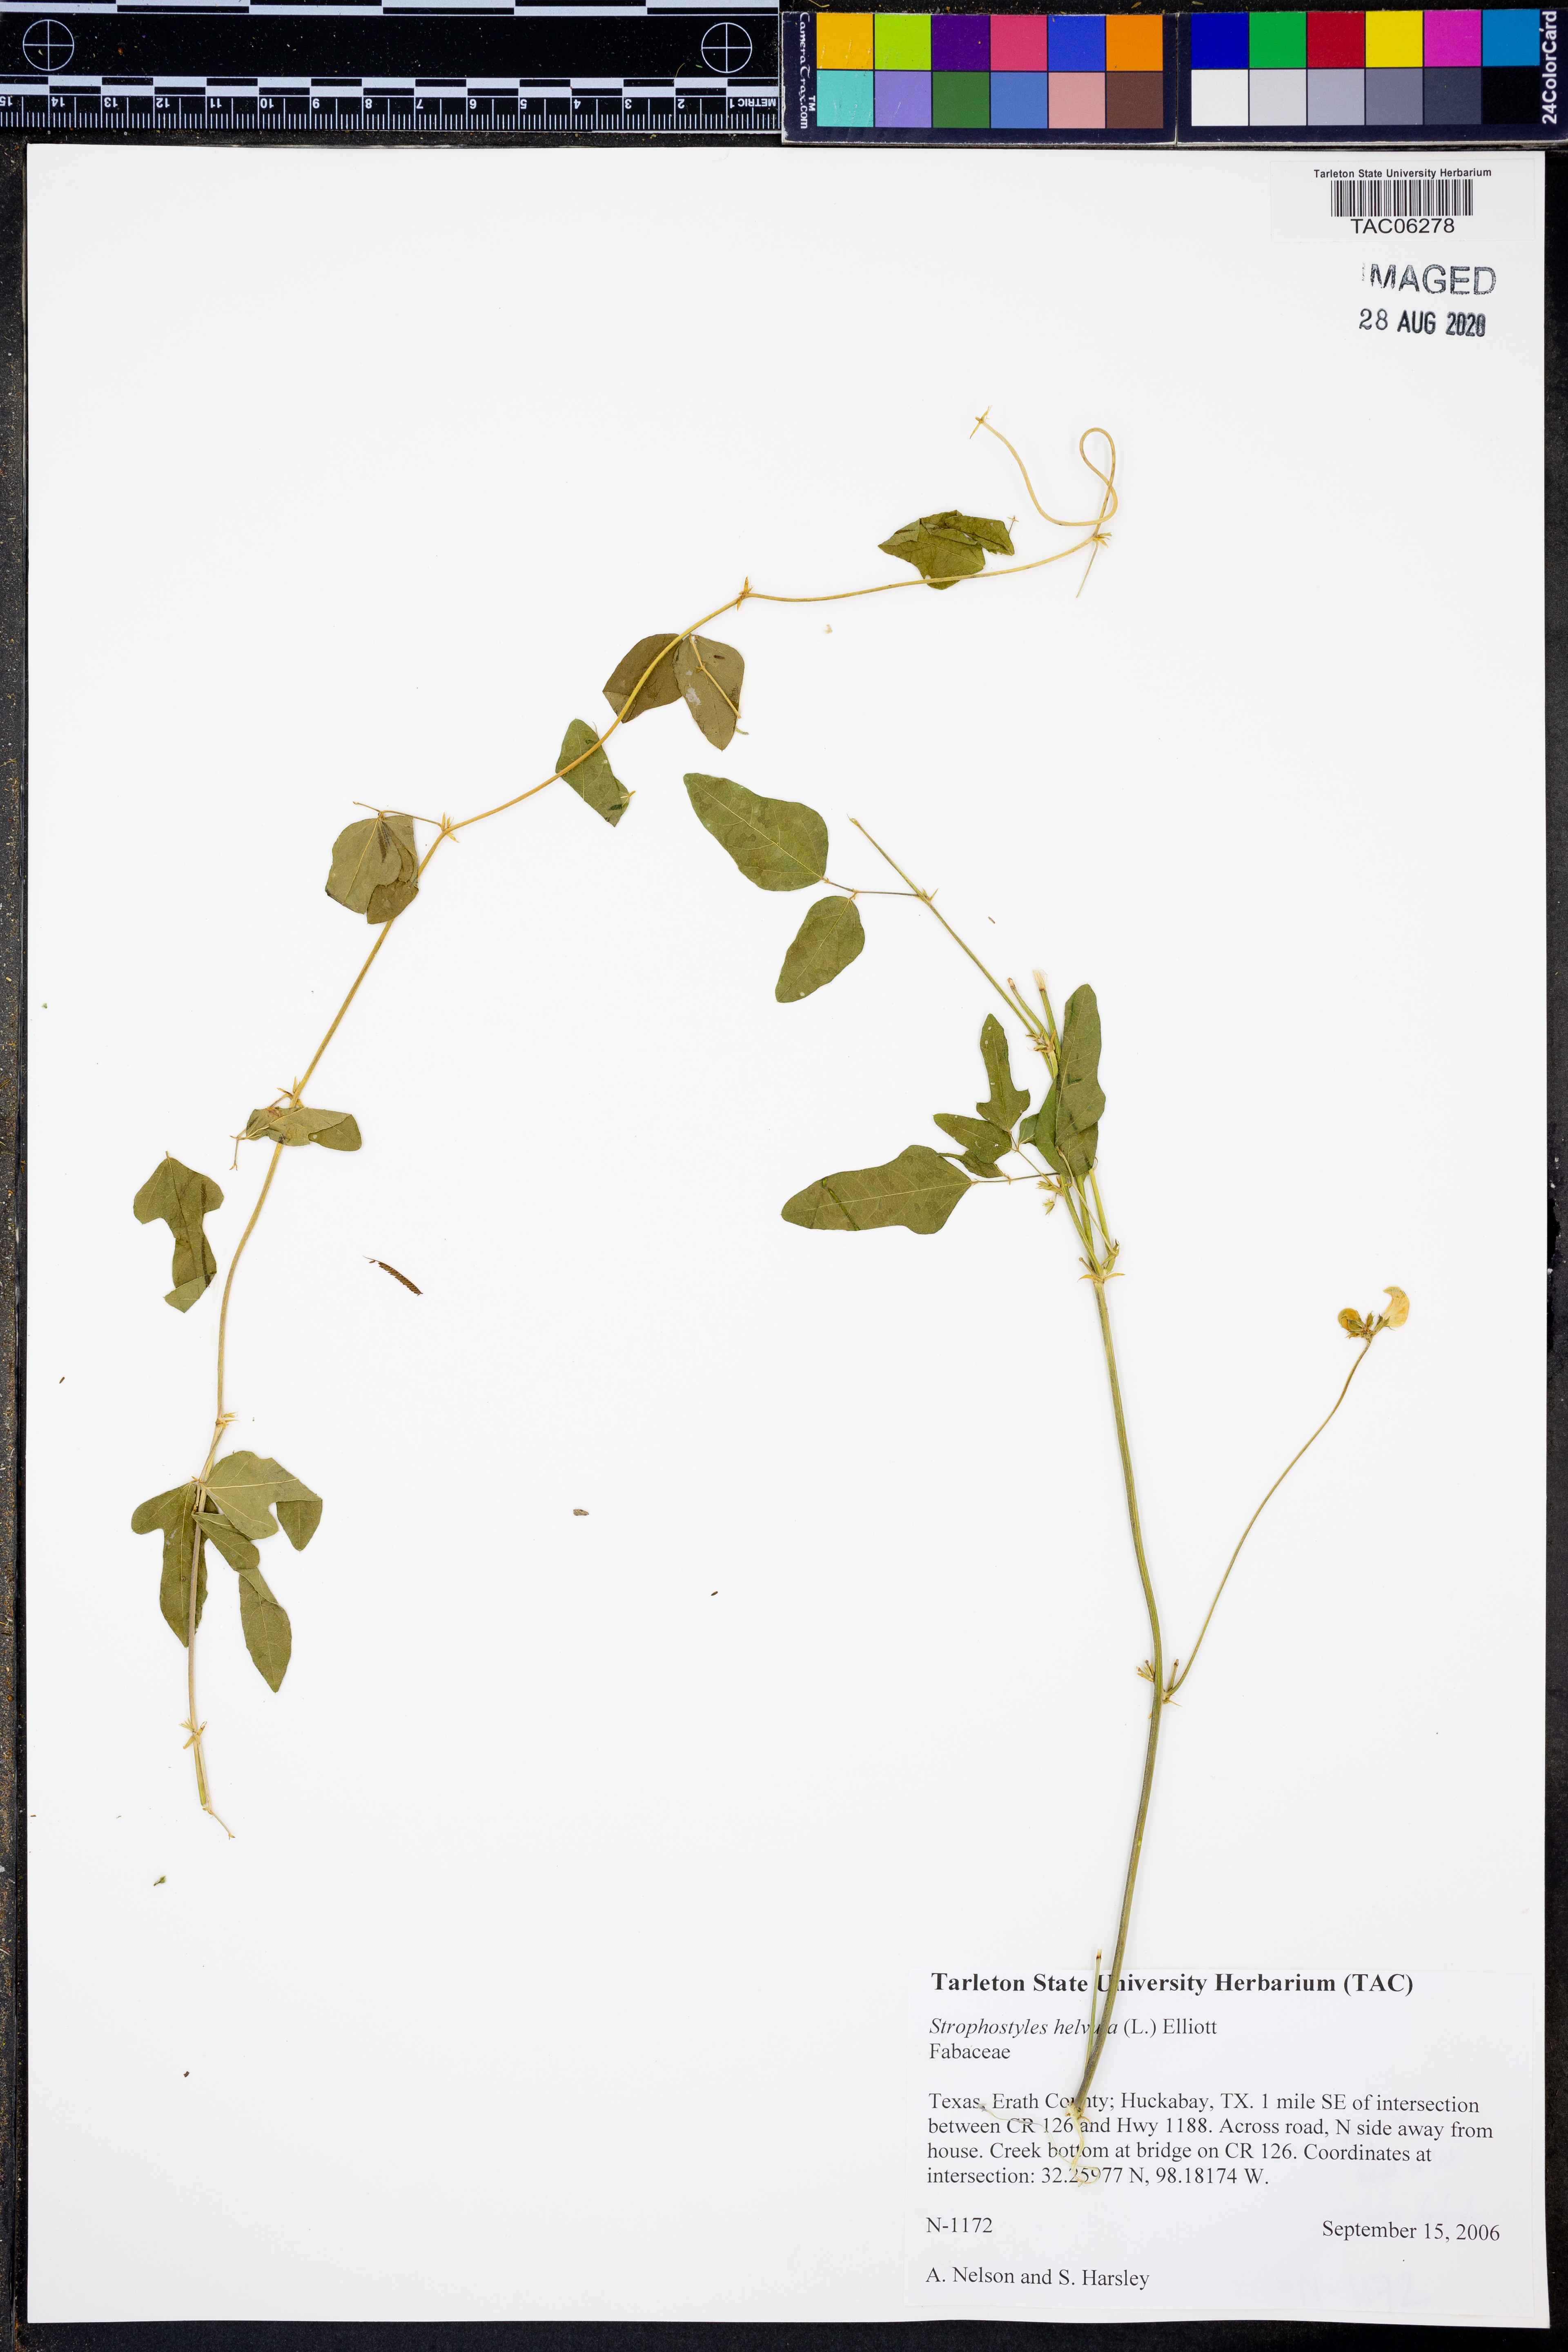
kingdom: Plantae
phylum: Tracheophyta
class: Magnoliopsida
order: Fabales
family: Fabaceae
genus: Strophostyles
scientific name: Strophostyles helvola
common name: Trailing wild bean
